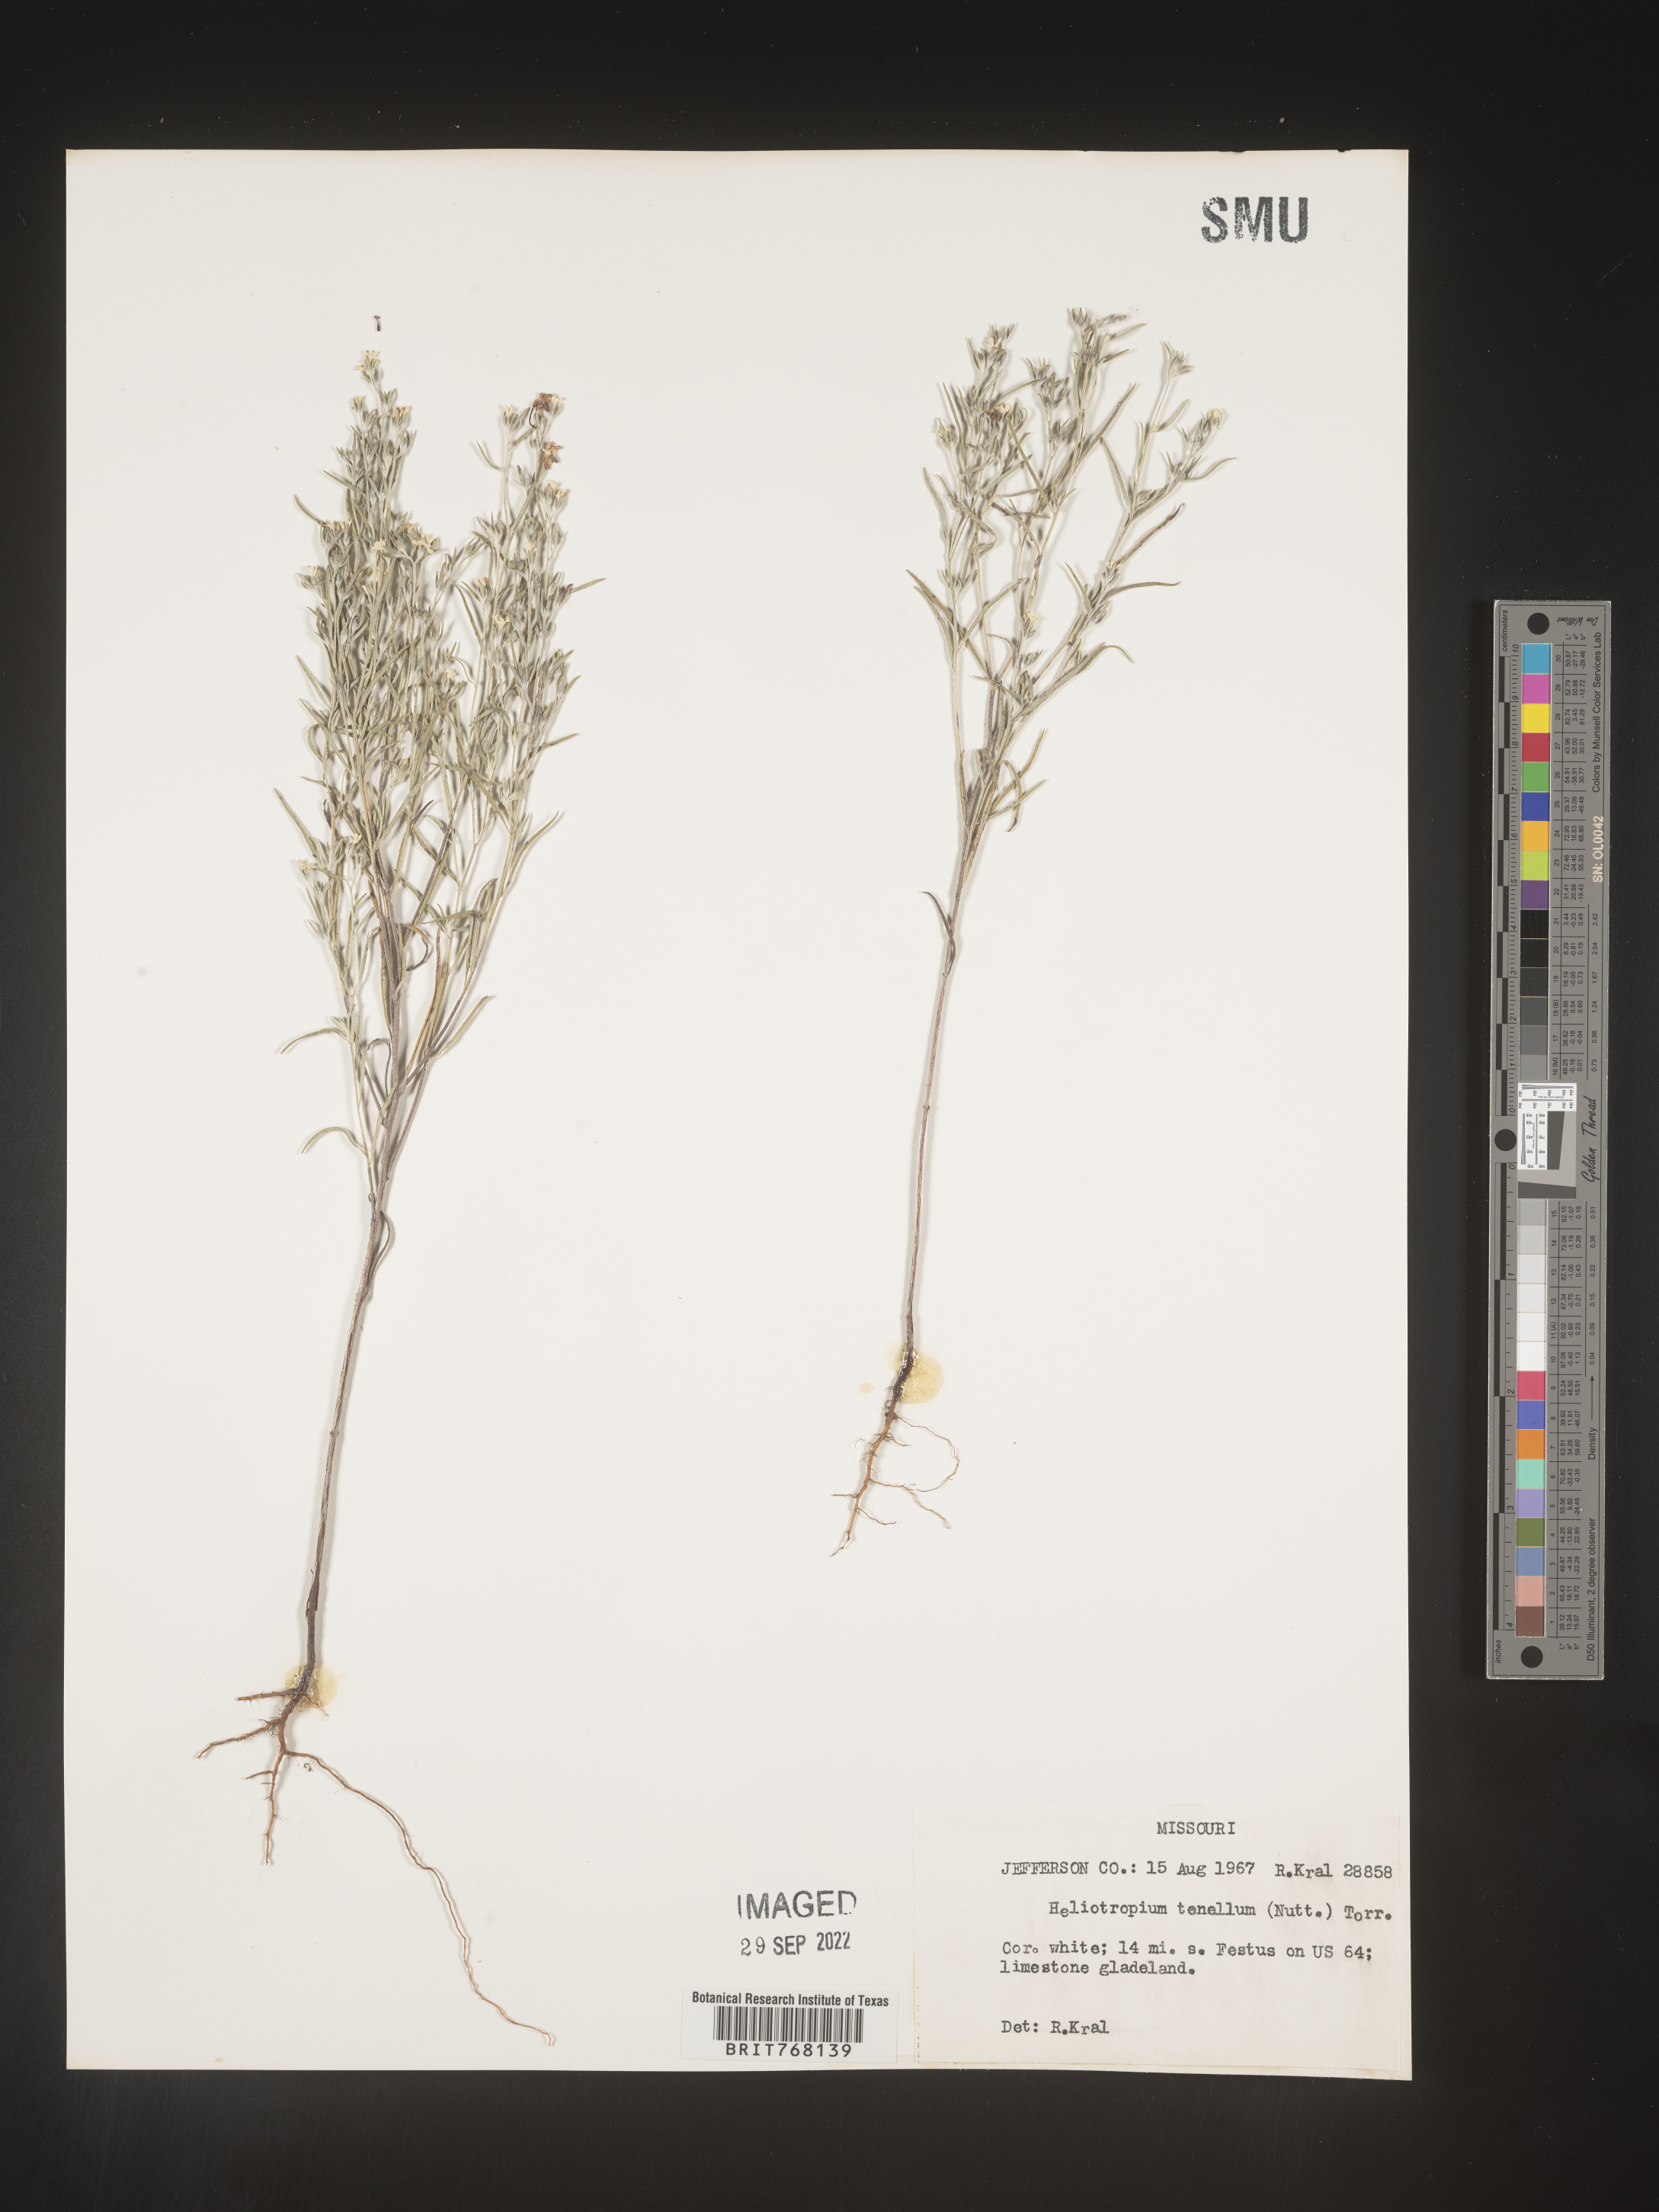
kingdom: Plantae
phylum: Tracheophyta
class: Magnoliopsida
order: Boraginales
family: Heliotropiaceae
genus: Euploca
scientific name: Euploca tenella
